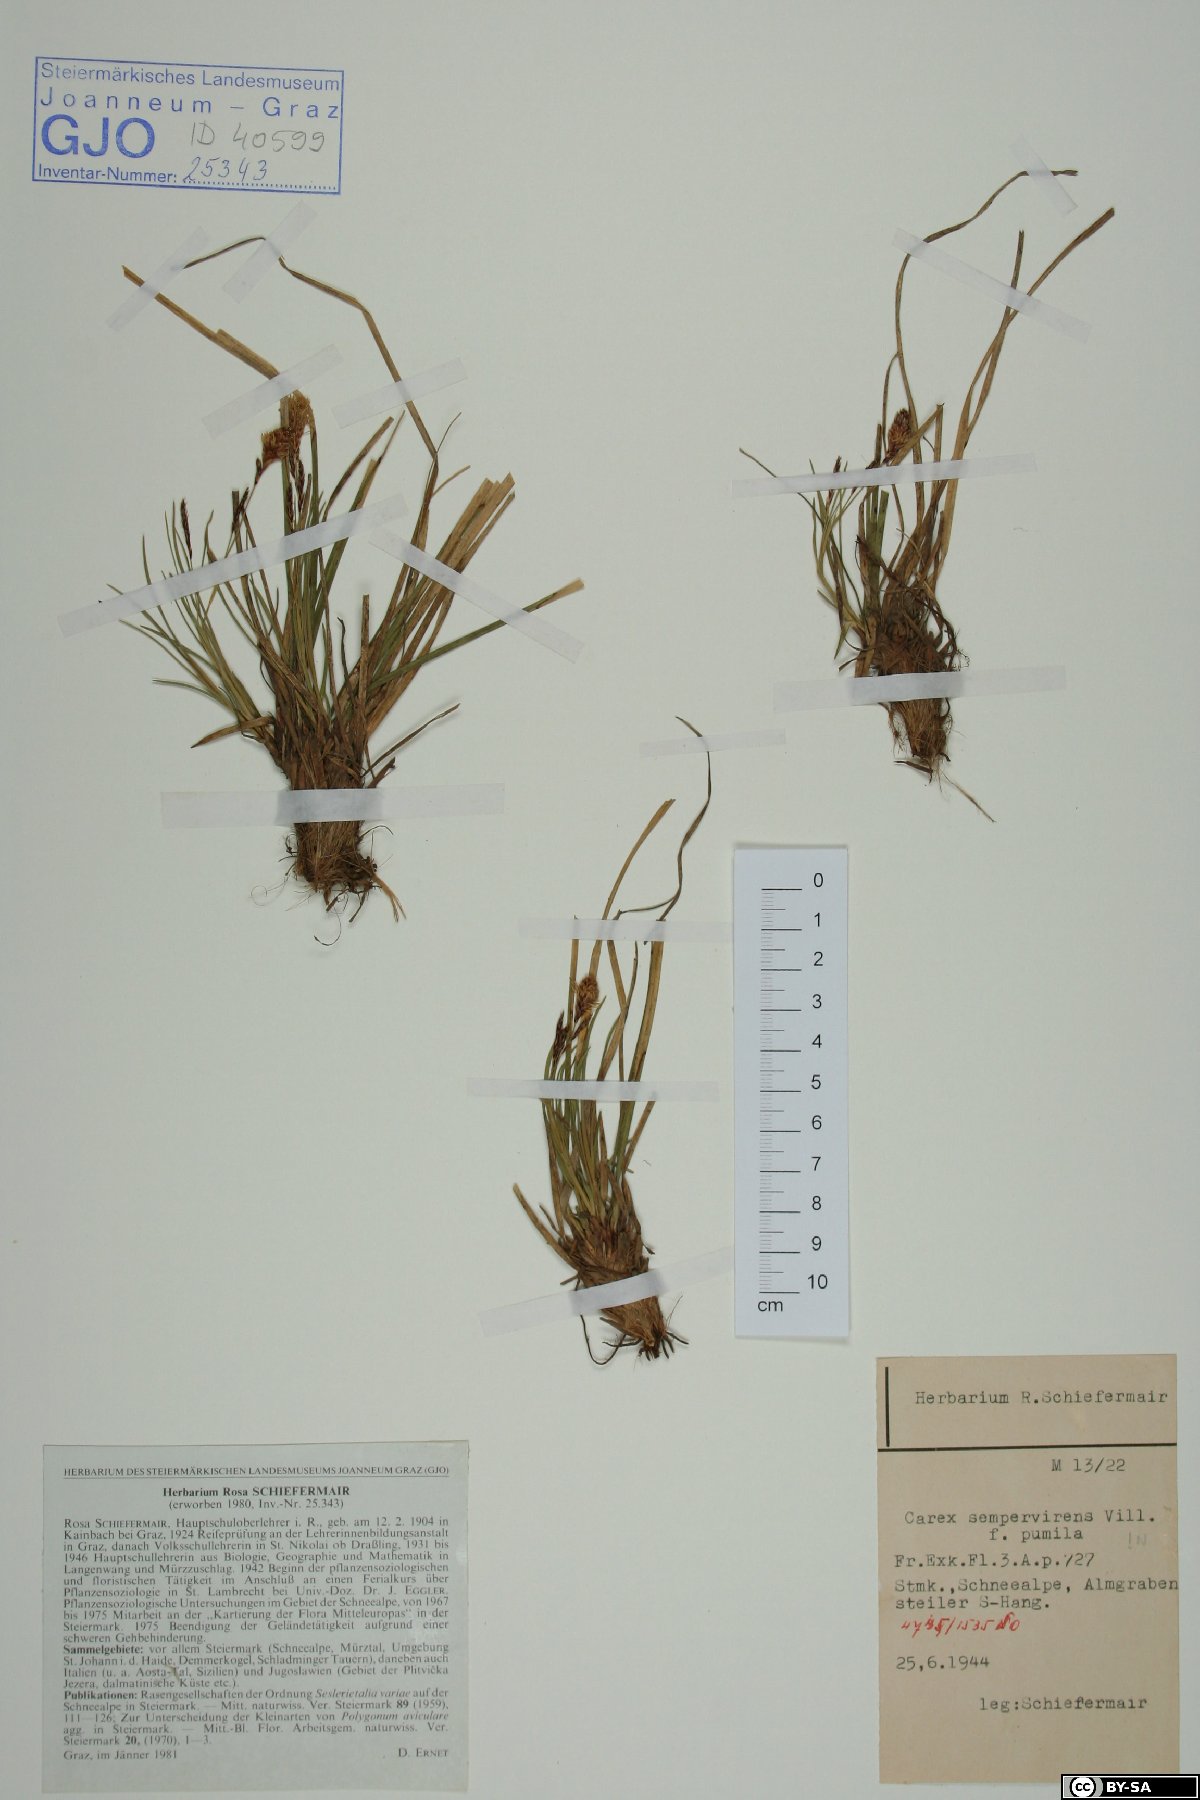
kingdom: Plantae
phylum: Tracheophyta
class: Liliopsida
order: Poales
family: Cyperaceae
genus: Carex
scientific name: Carex sempervirens
